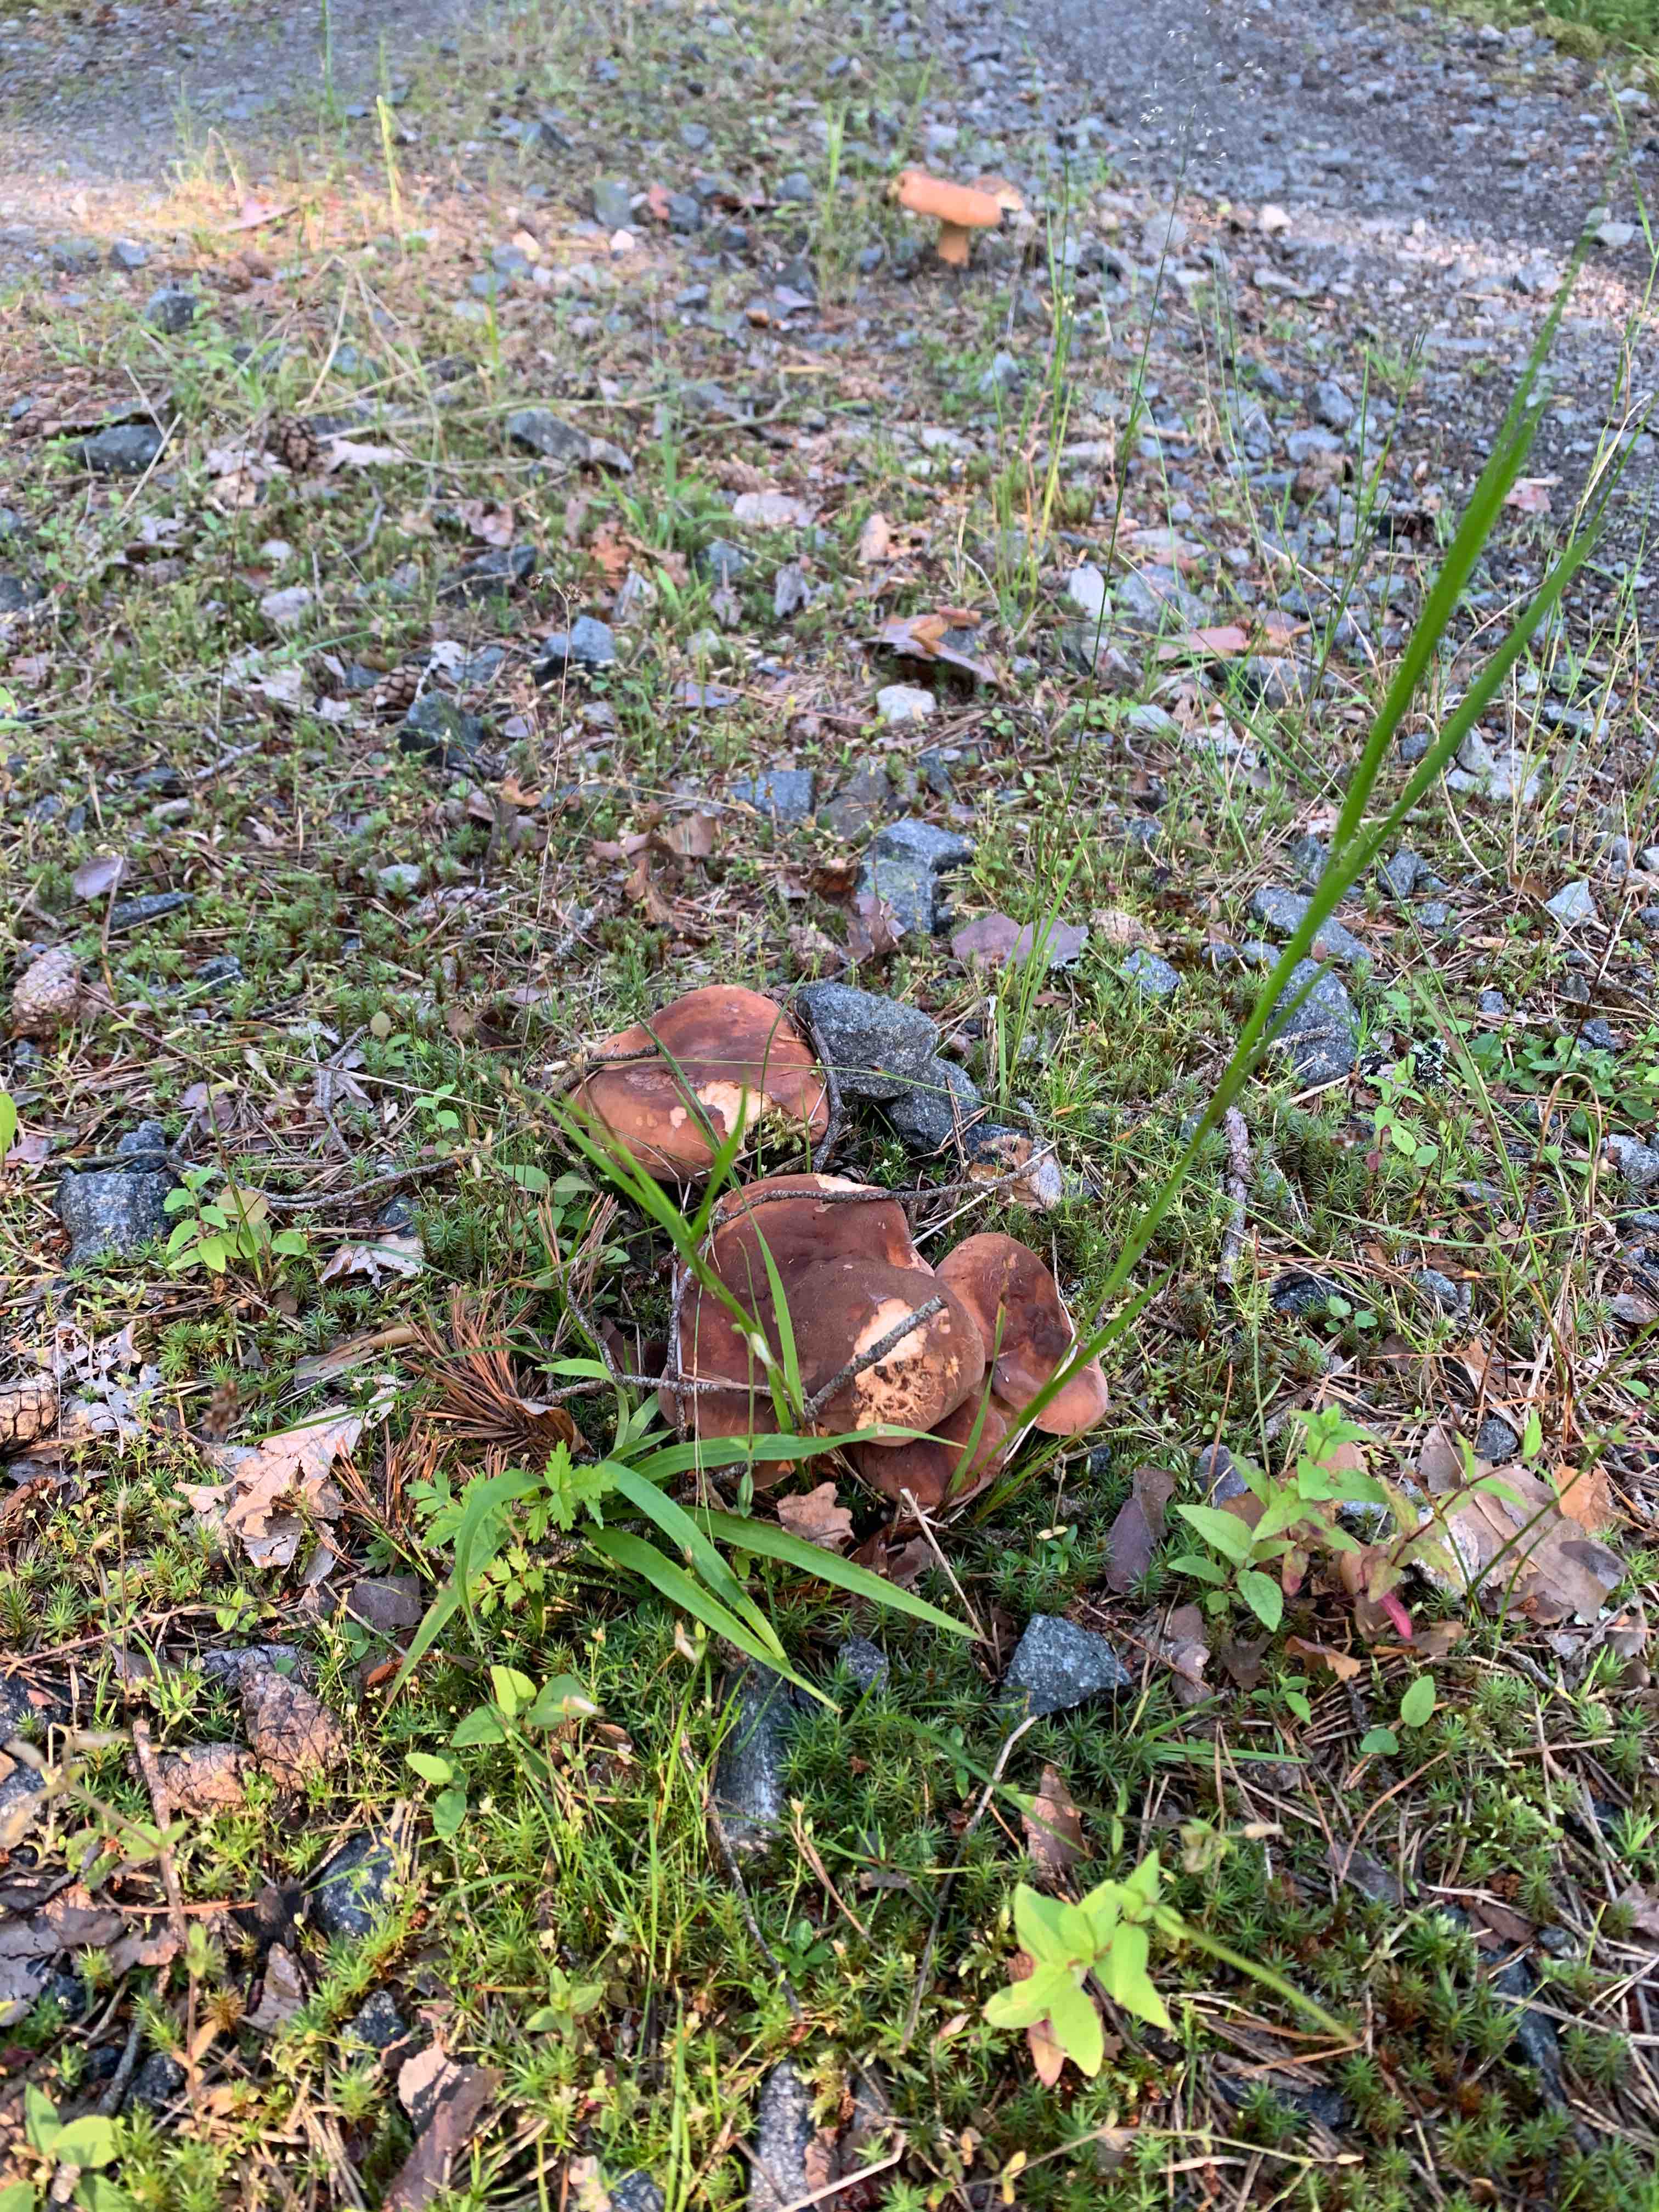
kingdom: Fungi
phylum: Basidiomycota
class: Agaricomycetes
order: Russulales
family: Russulaceae
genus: Lactifluus
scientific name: Lactifluus volemus
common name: spiselig mælkehat
